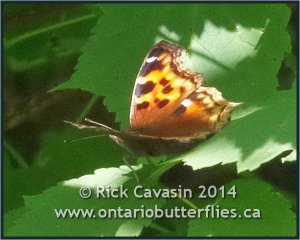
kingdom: Animalia
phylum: Arthropoda
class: Insecta
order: Lepidoptera
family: Nymphalidae
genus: Polygonia
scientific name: Polygonia vaualbum
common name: Compton Tortoiseshell
